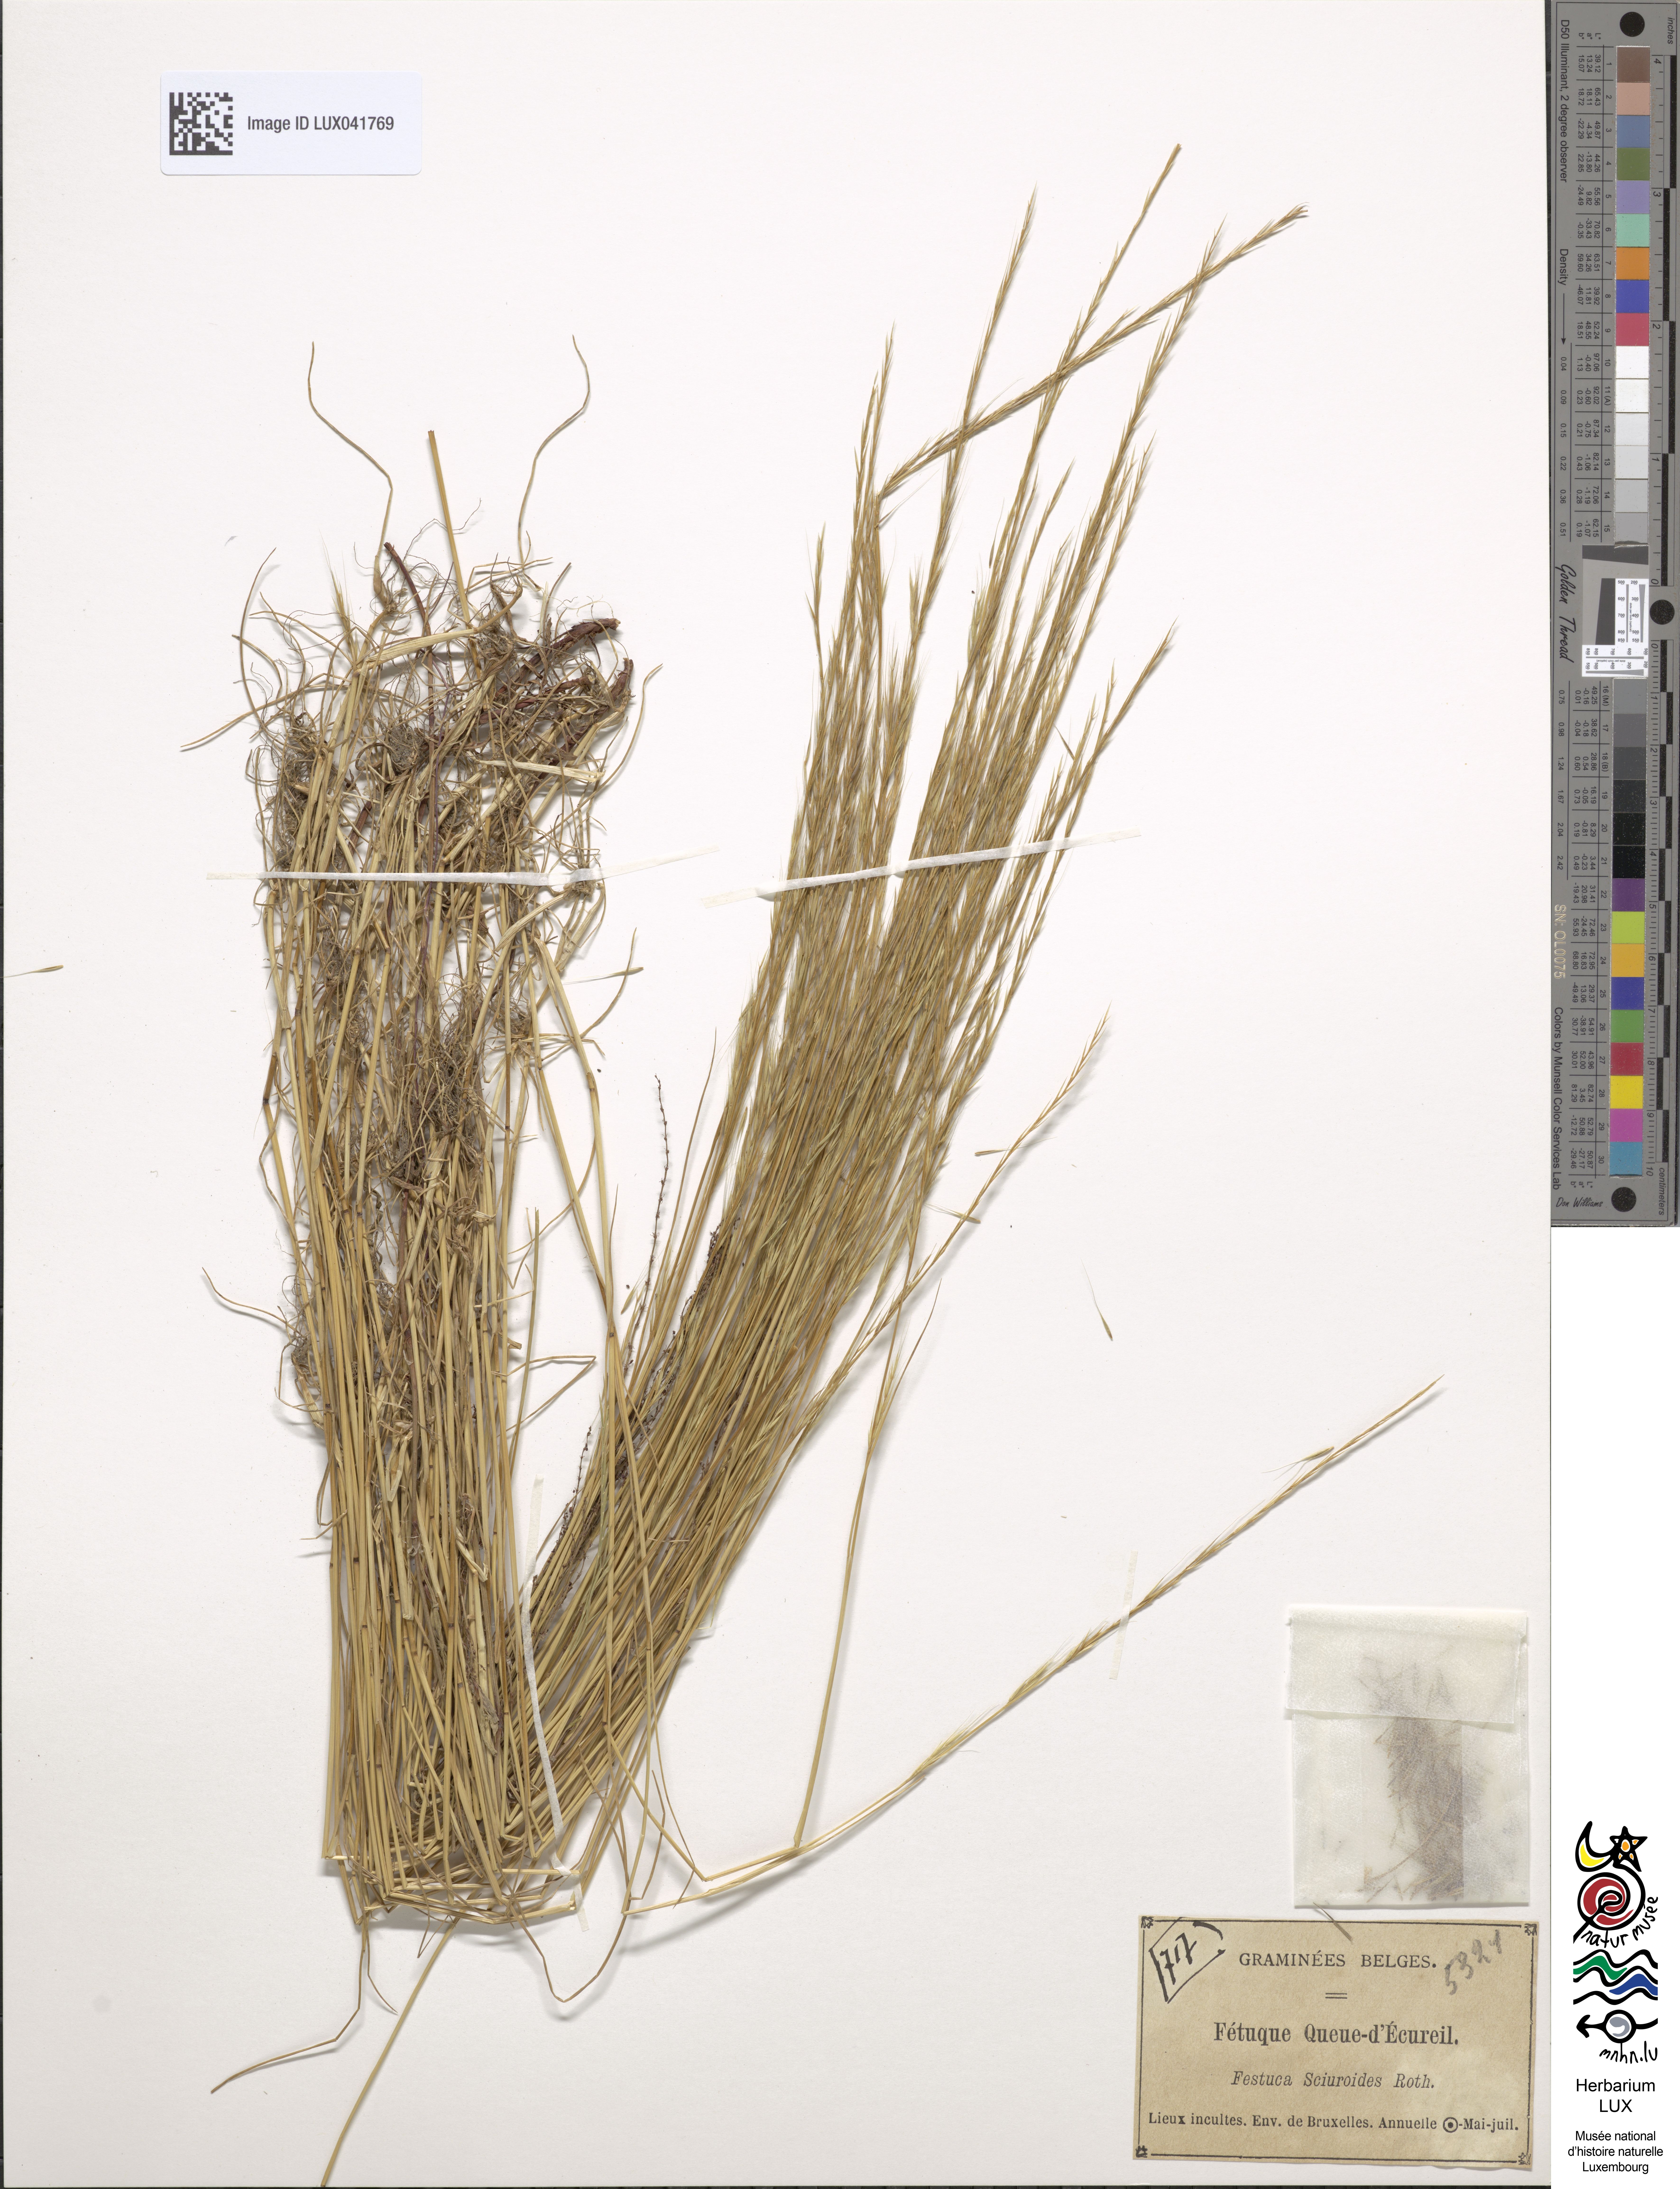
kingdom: Plantae
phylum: Tracheophyta
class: Liliopsida
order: Poales
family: Poaceae
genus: Festuca
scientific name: Festuca bromoides
